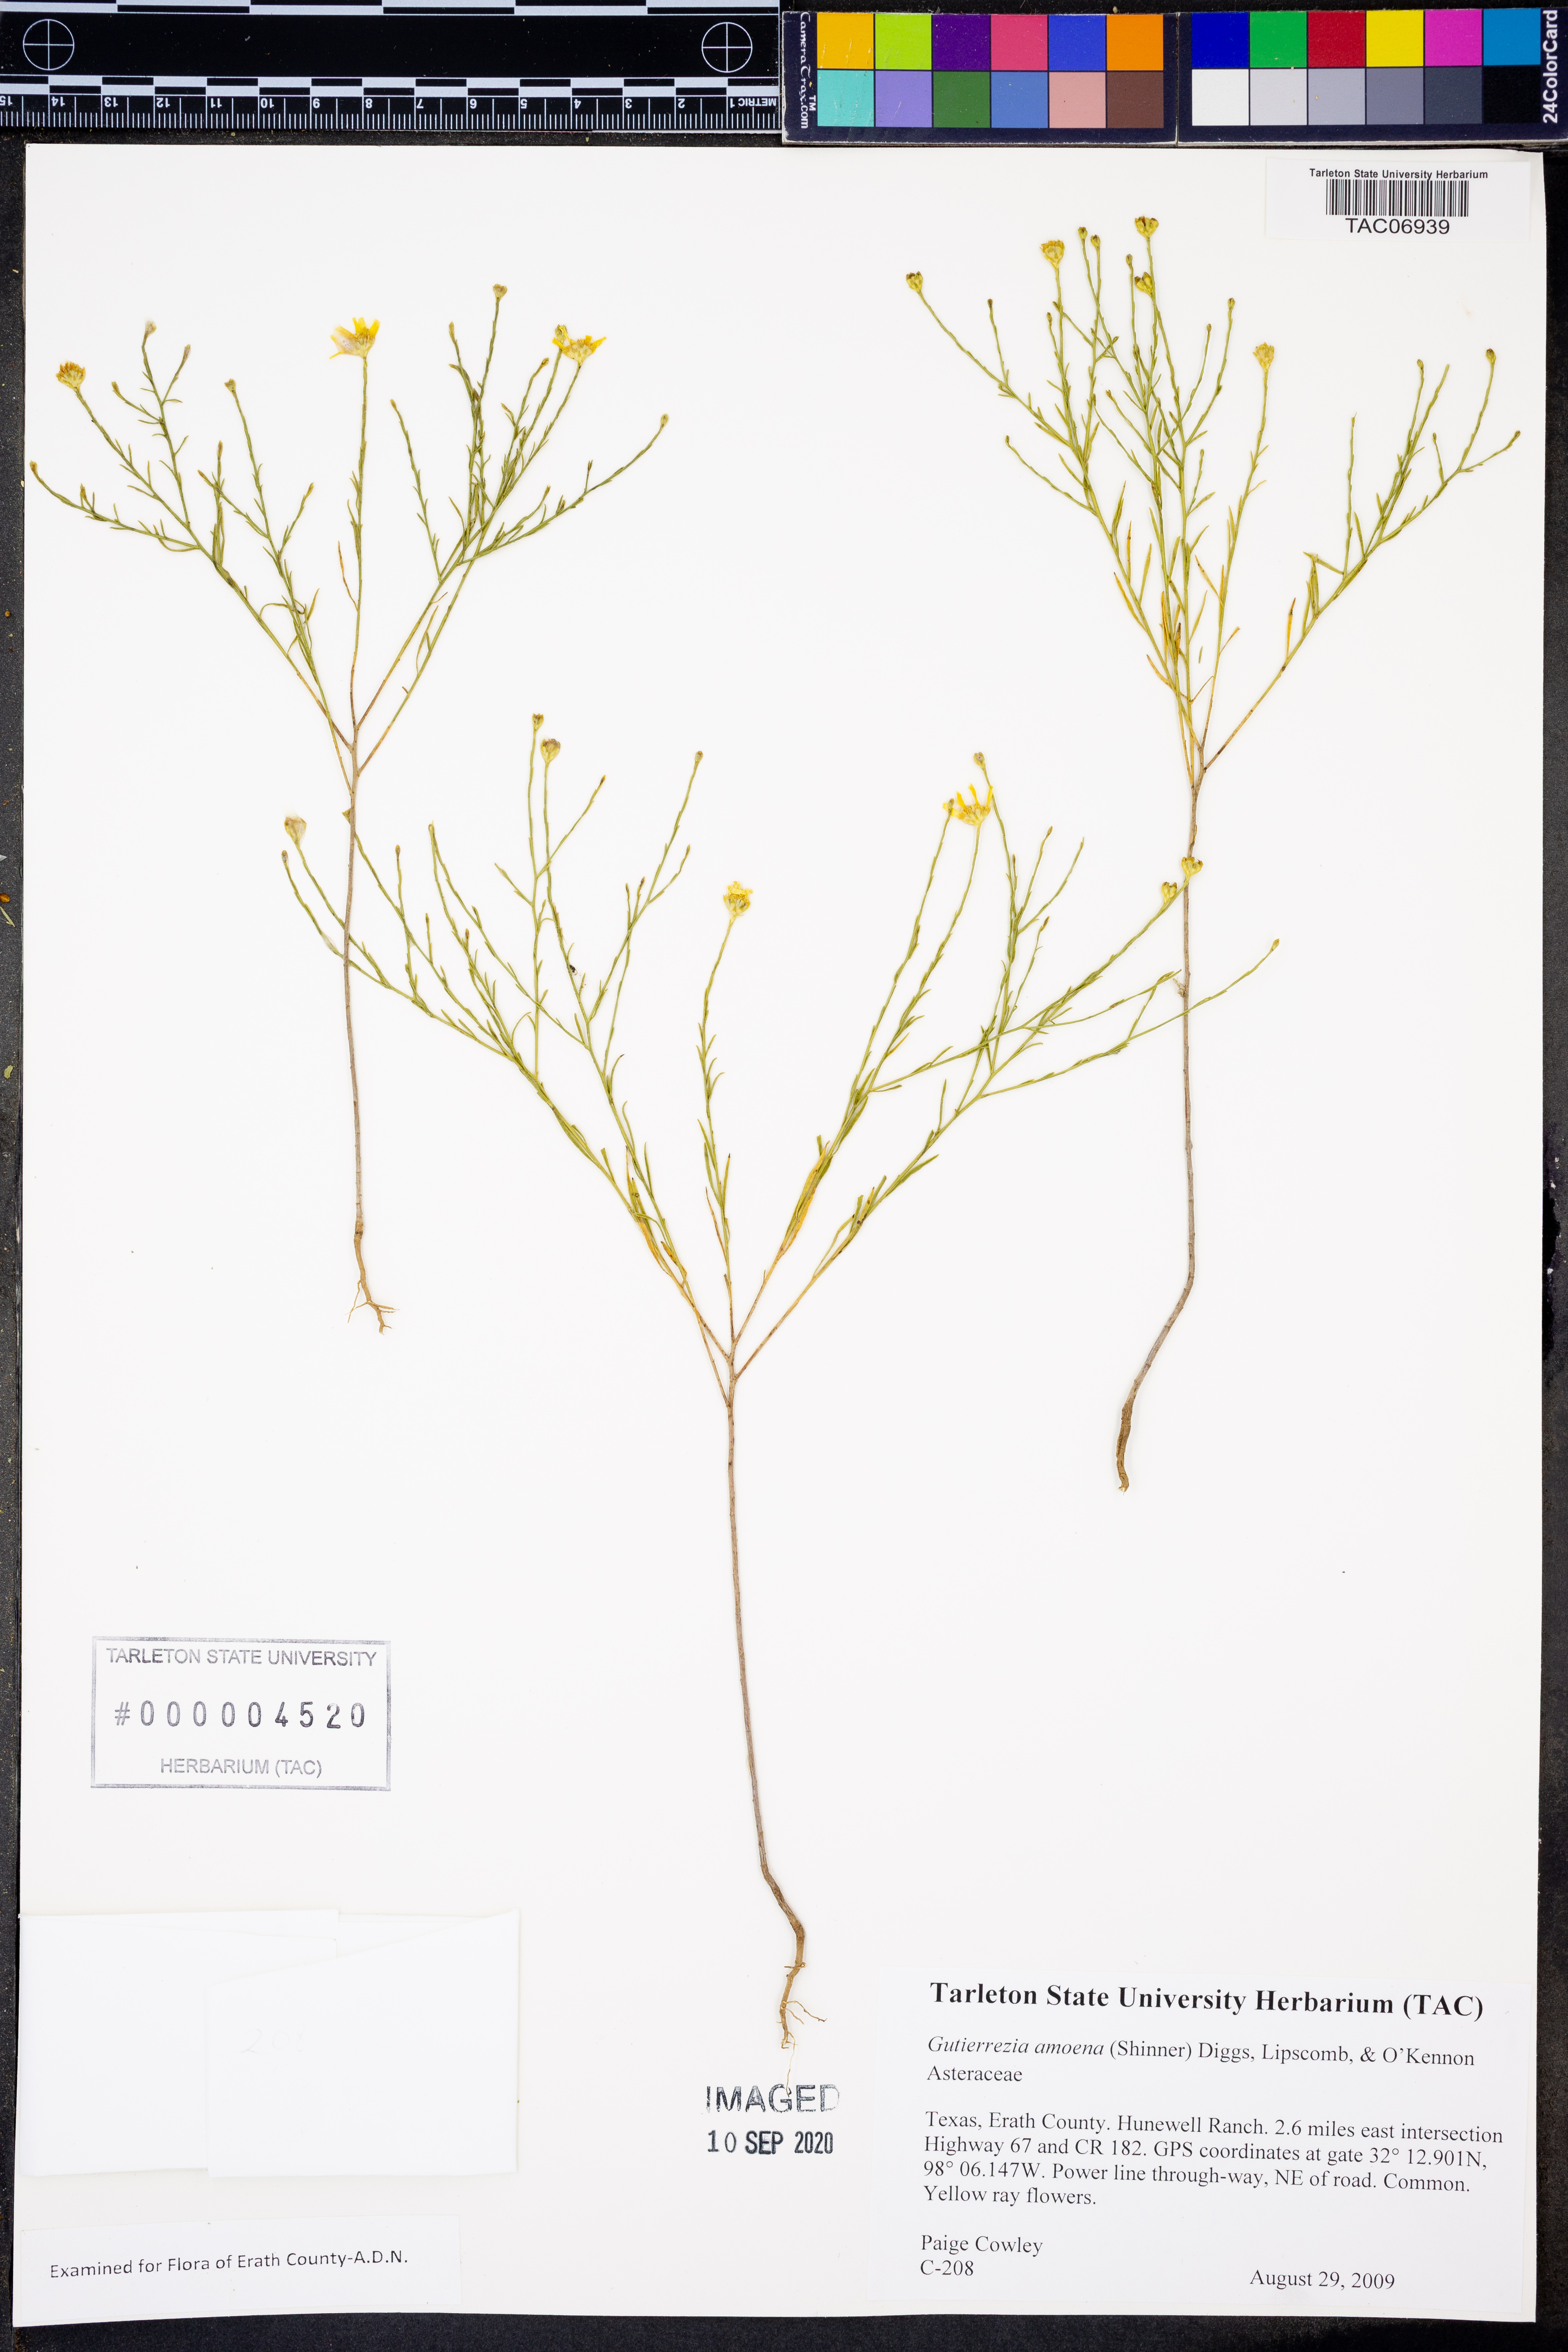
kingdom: Plantae
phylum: Tracheophyta
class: Magnoliopsida
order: Asterales
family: Asteraceae
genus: Amphiachyris
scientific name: Amphiachyris amoenum
